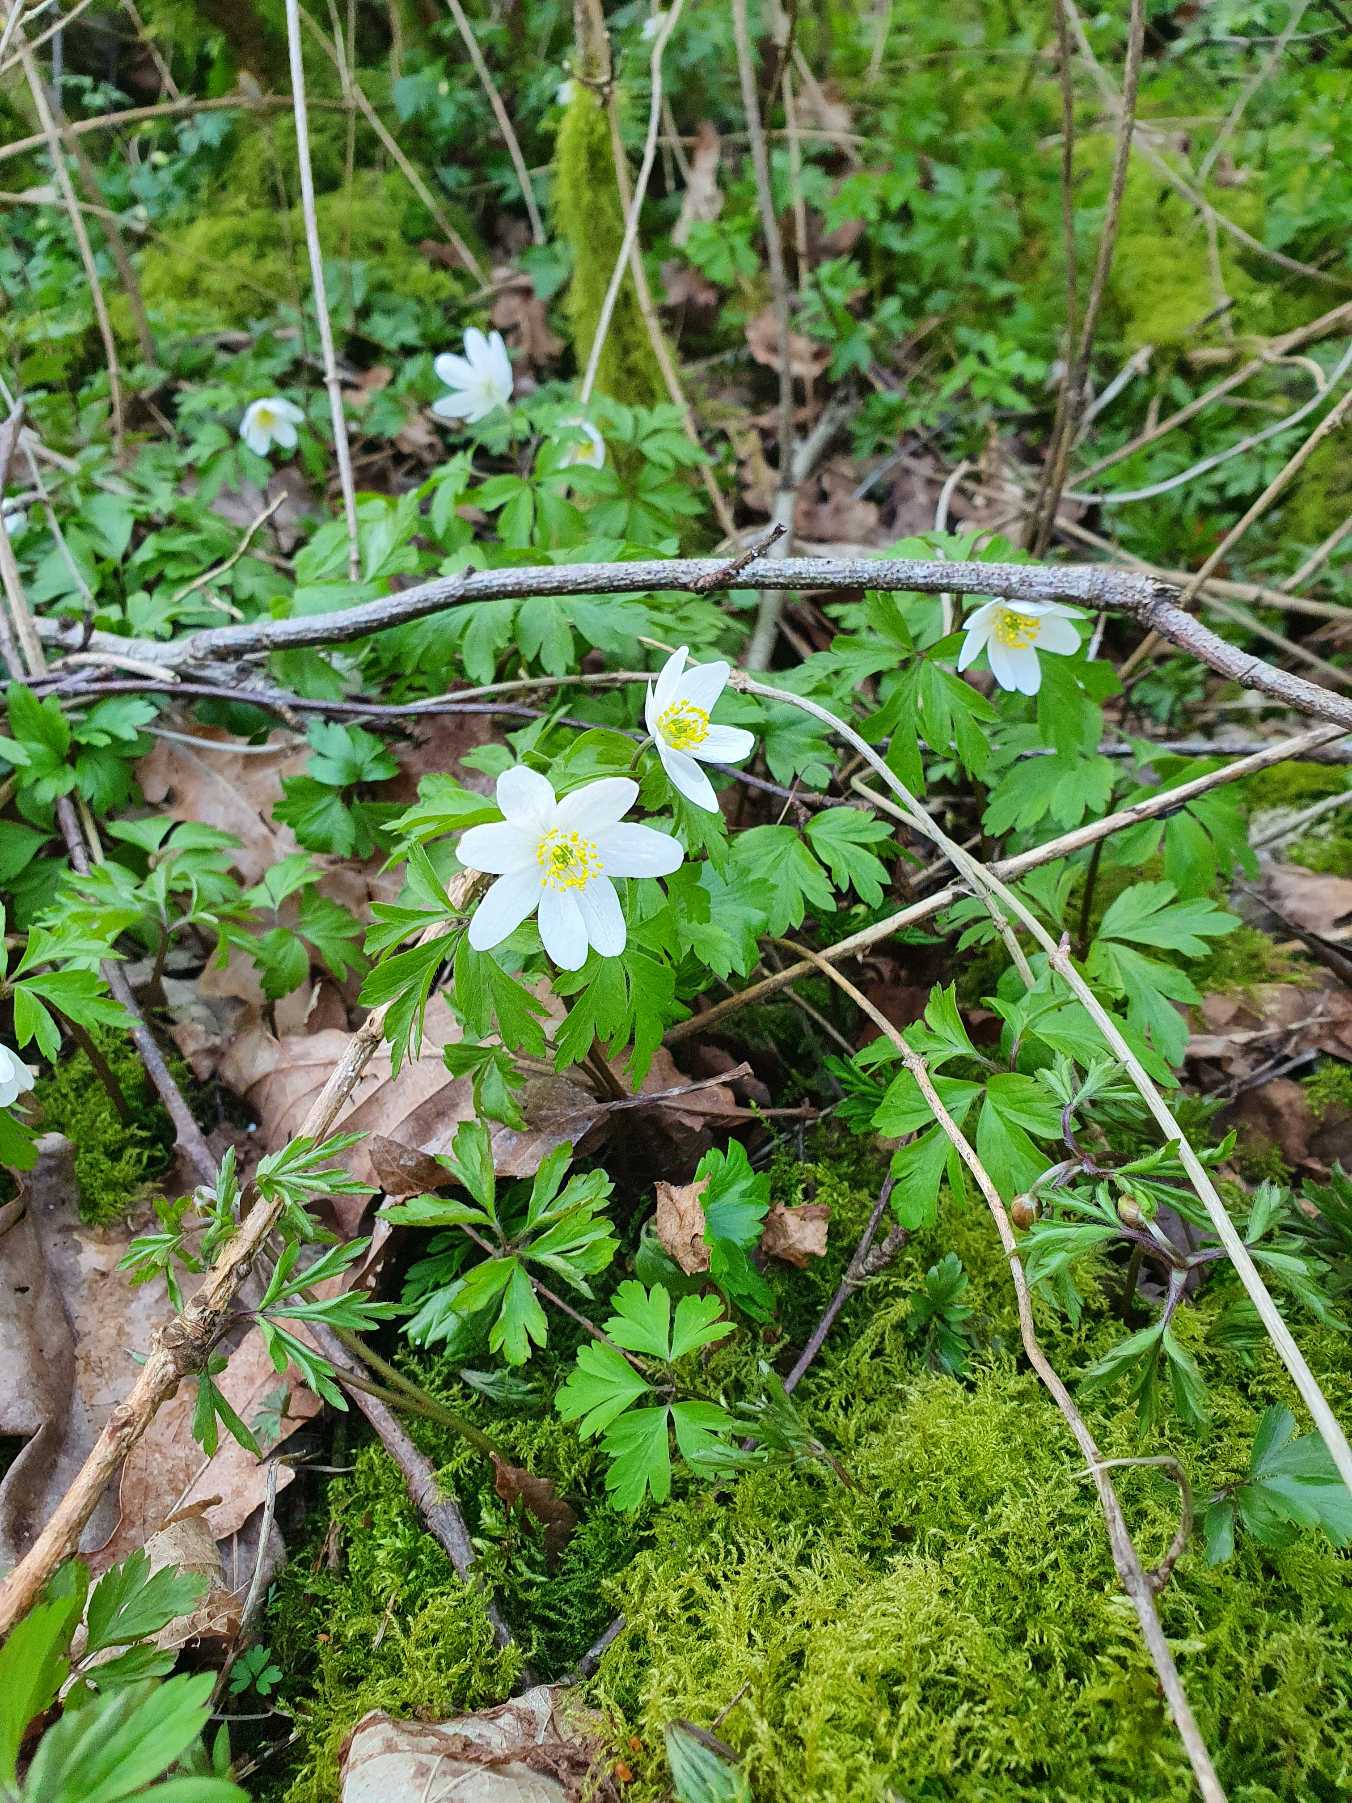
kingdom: Plantae
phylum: Tracheophyta
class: Magnoliopsida
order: Ranunculales
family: Ranunculaceae
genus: Anemone
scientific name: Anemone nemorosa
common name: Hvid anemone
